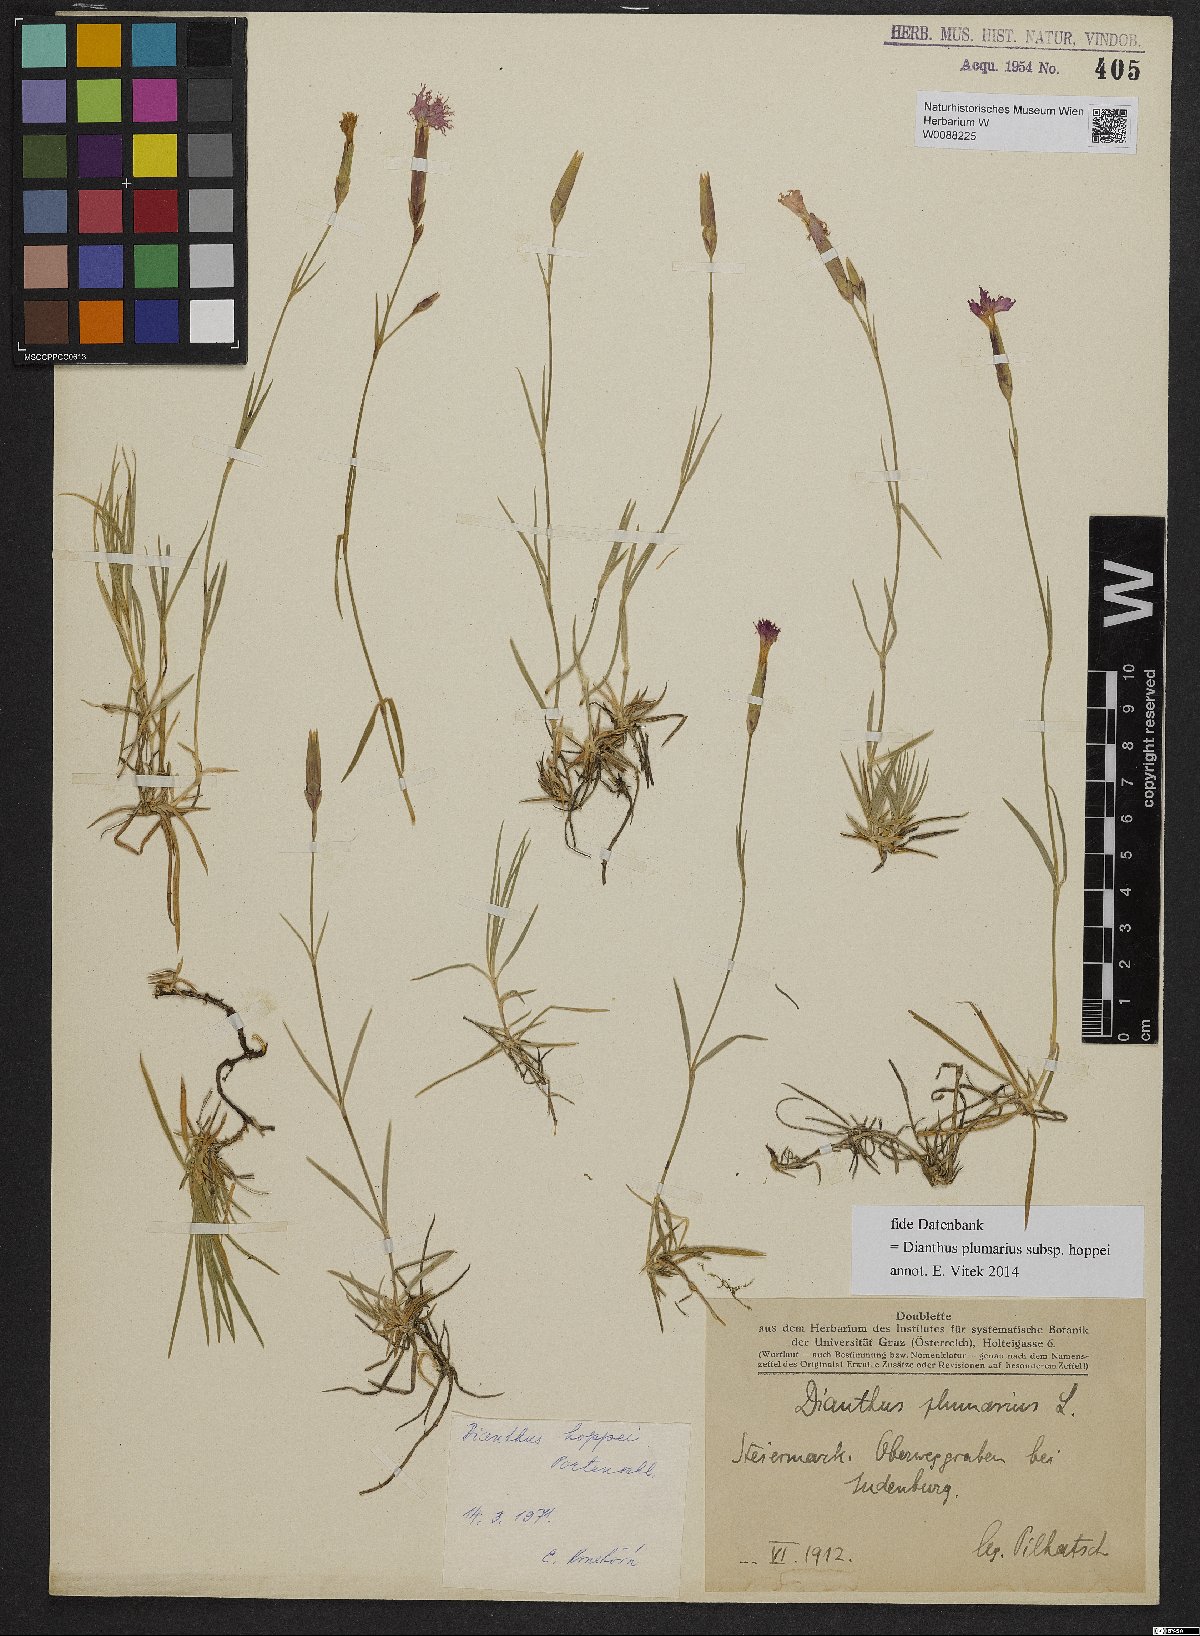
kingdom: Plantae
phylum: Tracheophyta
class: Magnoliopsida
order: Caryophyllales
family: Caryophyllaceae
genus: Dianthus
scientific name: Dianthus plumarius
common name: Pink
